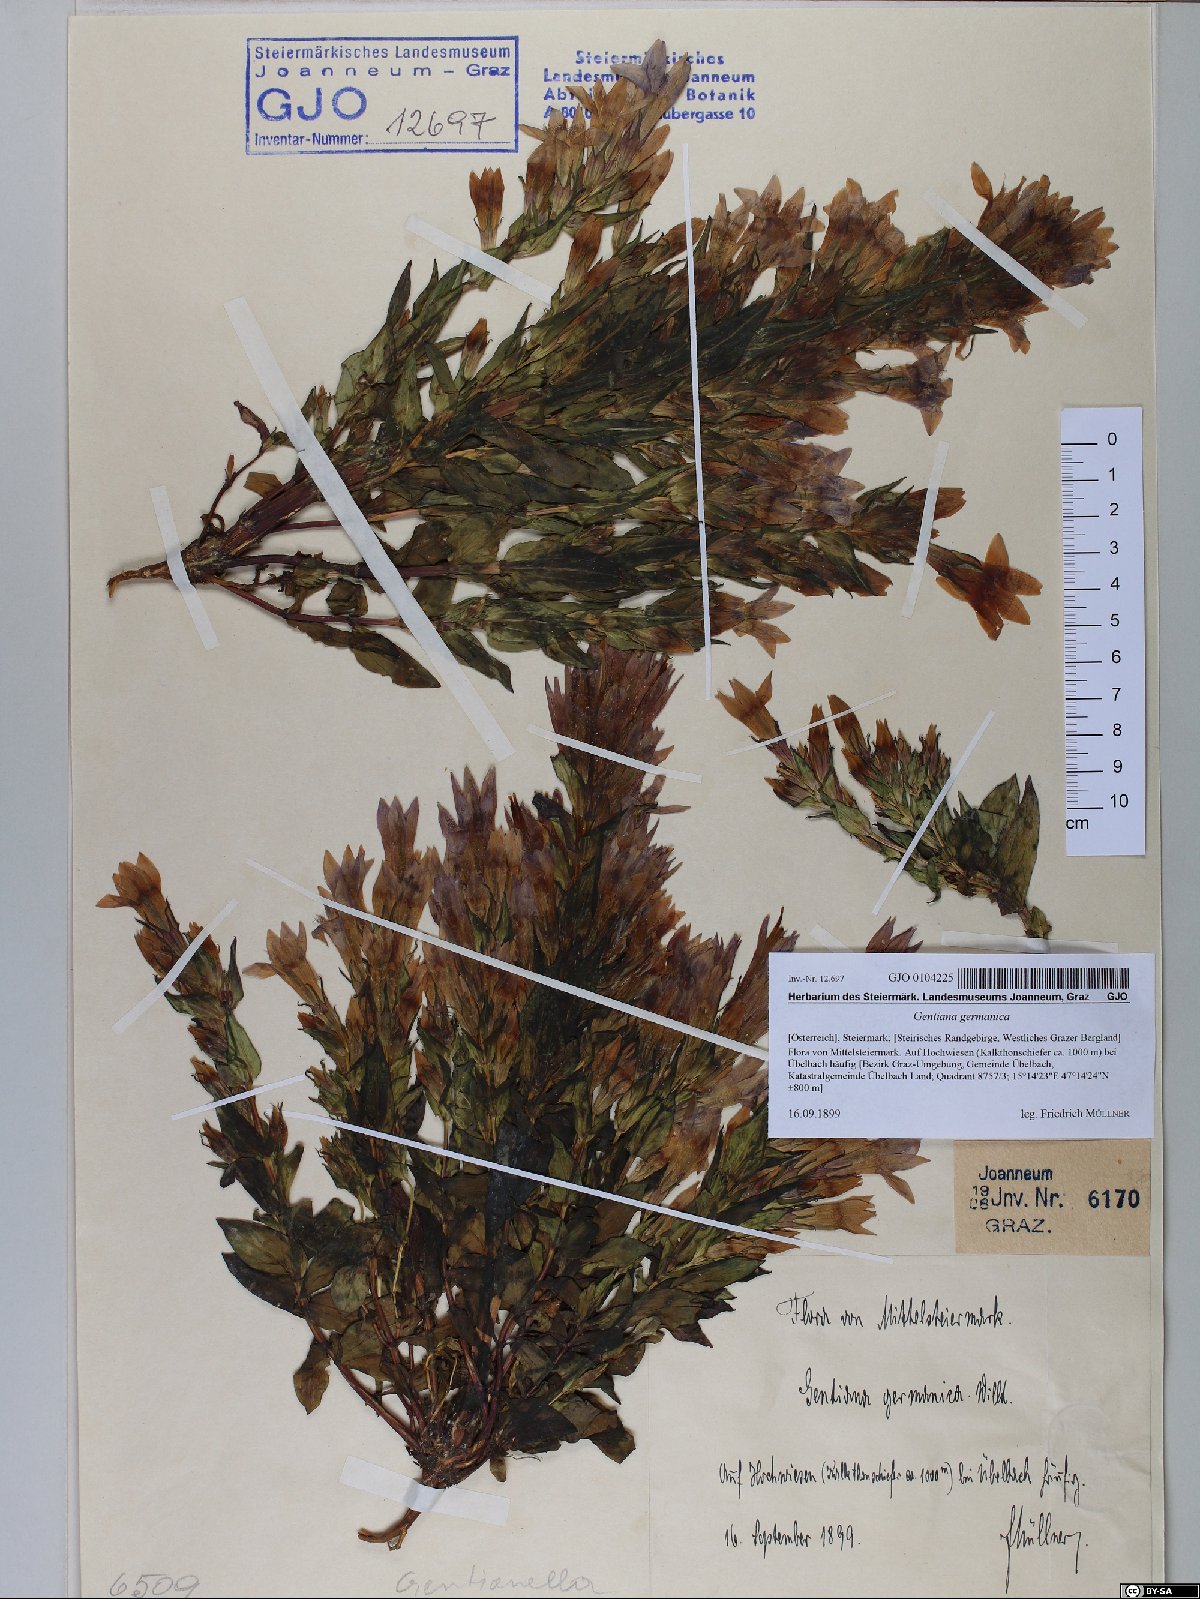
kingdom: Plantae
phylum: Tracheophyta
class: Magnoliopsida
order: Gentianales
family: Gentianaceae
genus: Gentianella
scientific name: Gentianella germanica
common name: Chiltern-gentian
